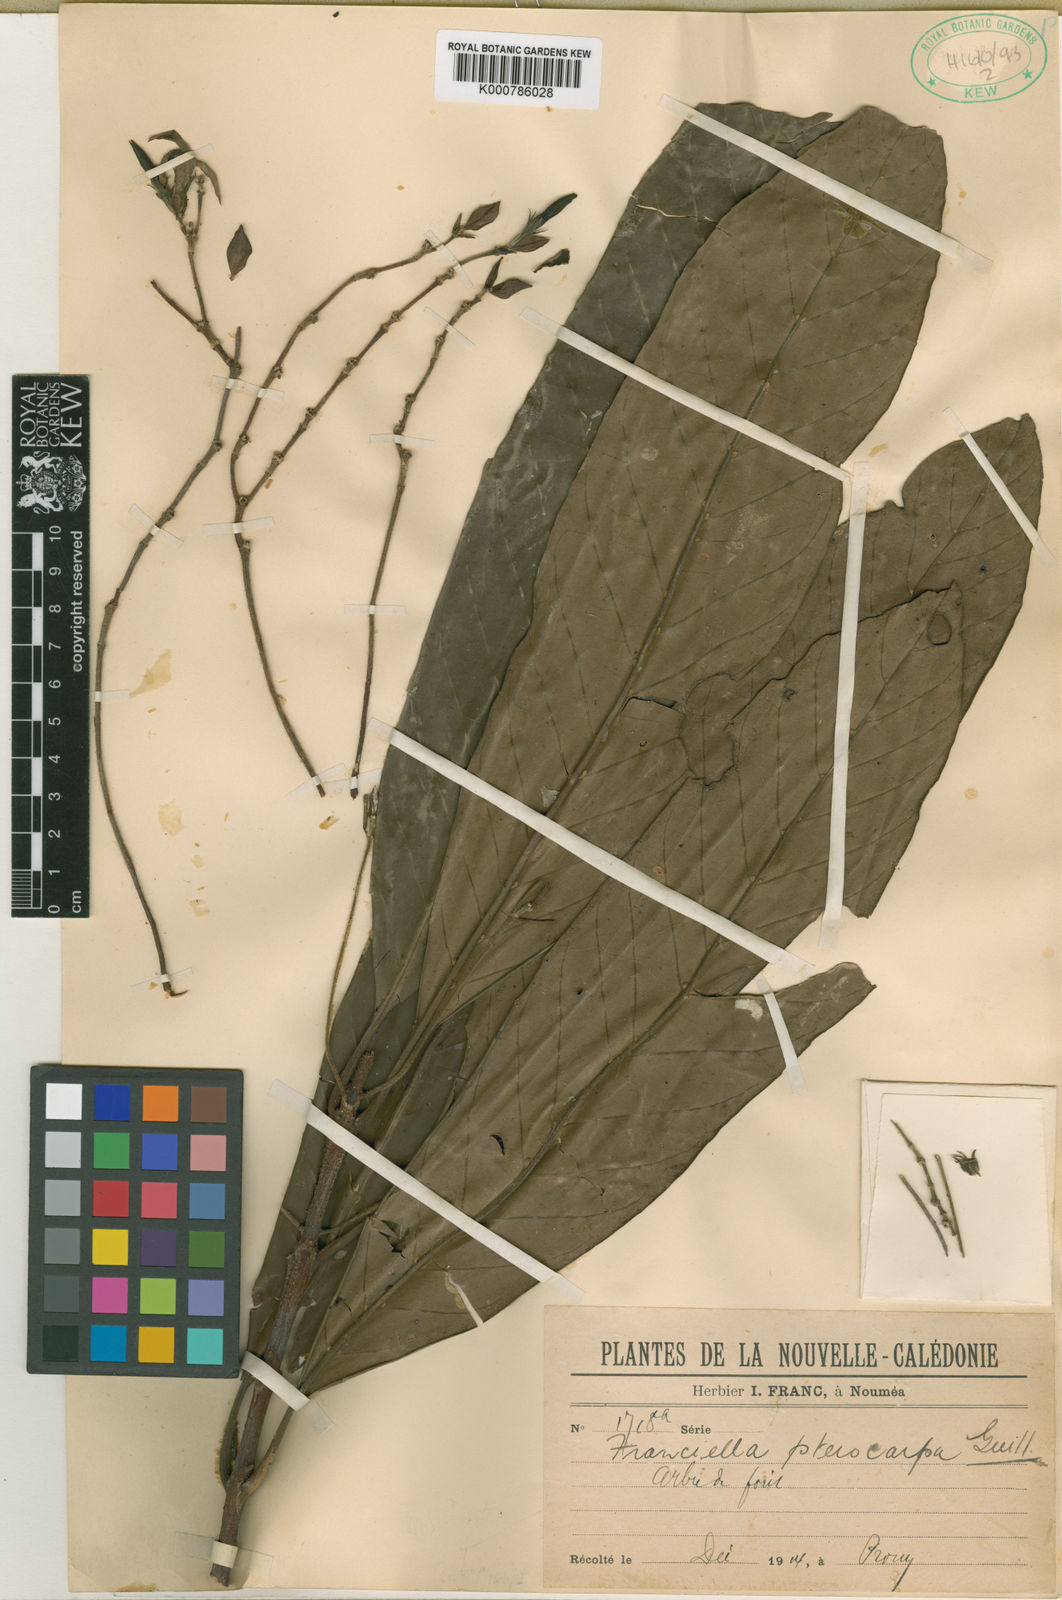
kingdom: Plantae
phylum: Tracheophyta
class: Magnoliopsida
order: Gentianales
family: Rubiaceae
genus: Atractocarpus
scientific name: Atractocarpus pterocarpon
